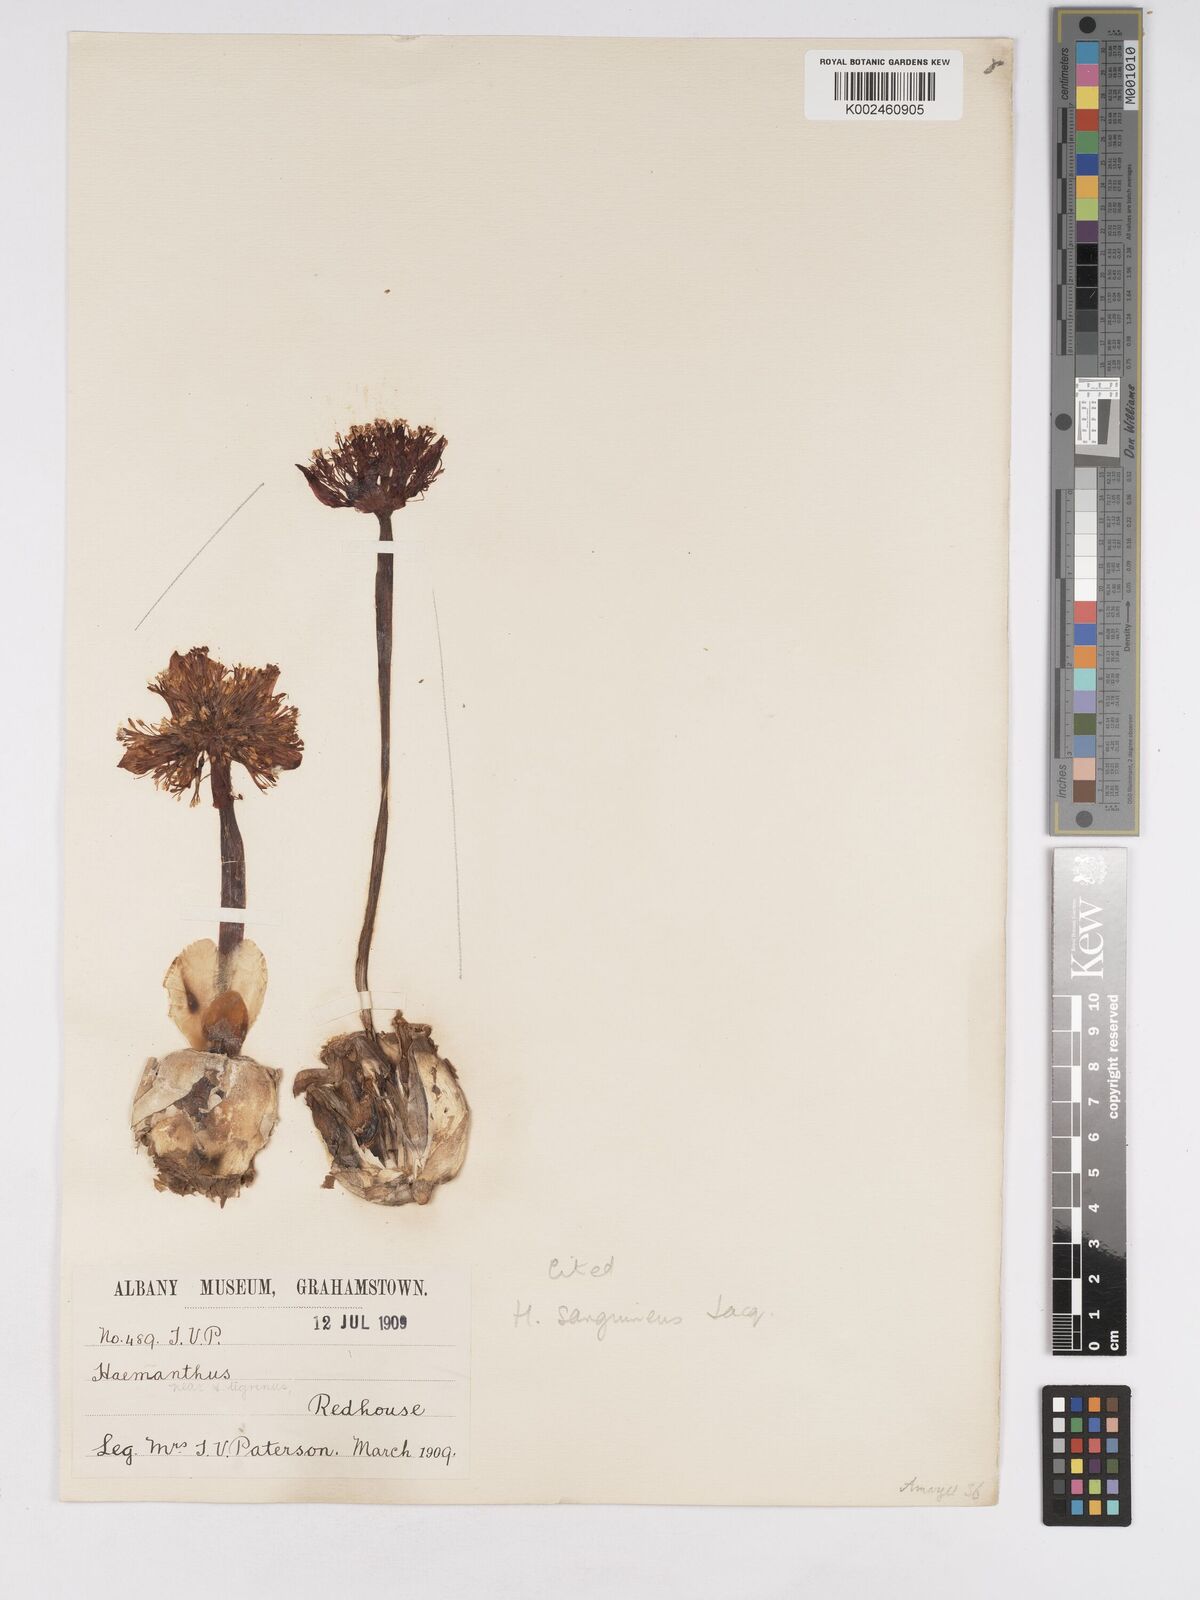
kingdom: Plantae
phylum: Tracheophyta
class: Liliopsida
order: Asparagales
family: Amaryllidaceae
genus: Haemanthus
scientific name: Haemanthus sanguineus
